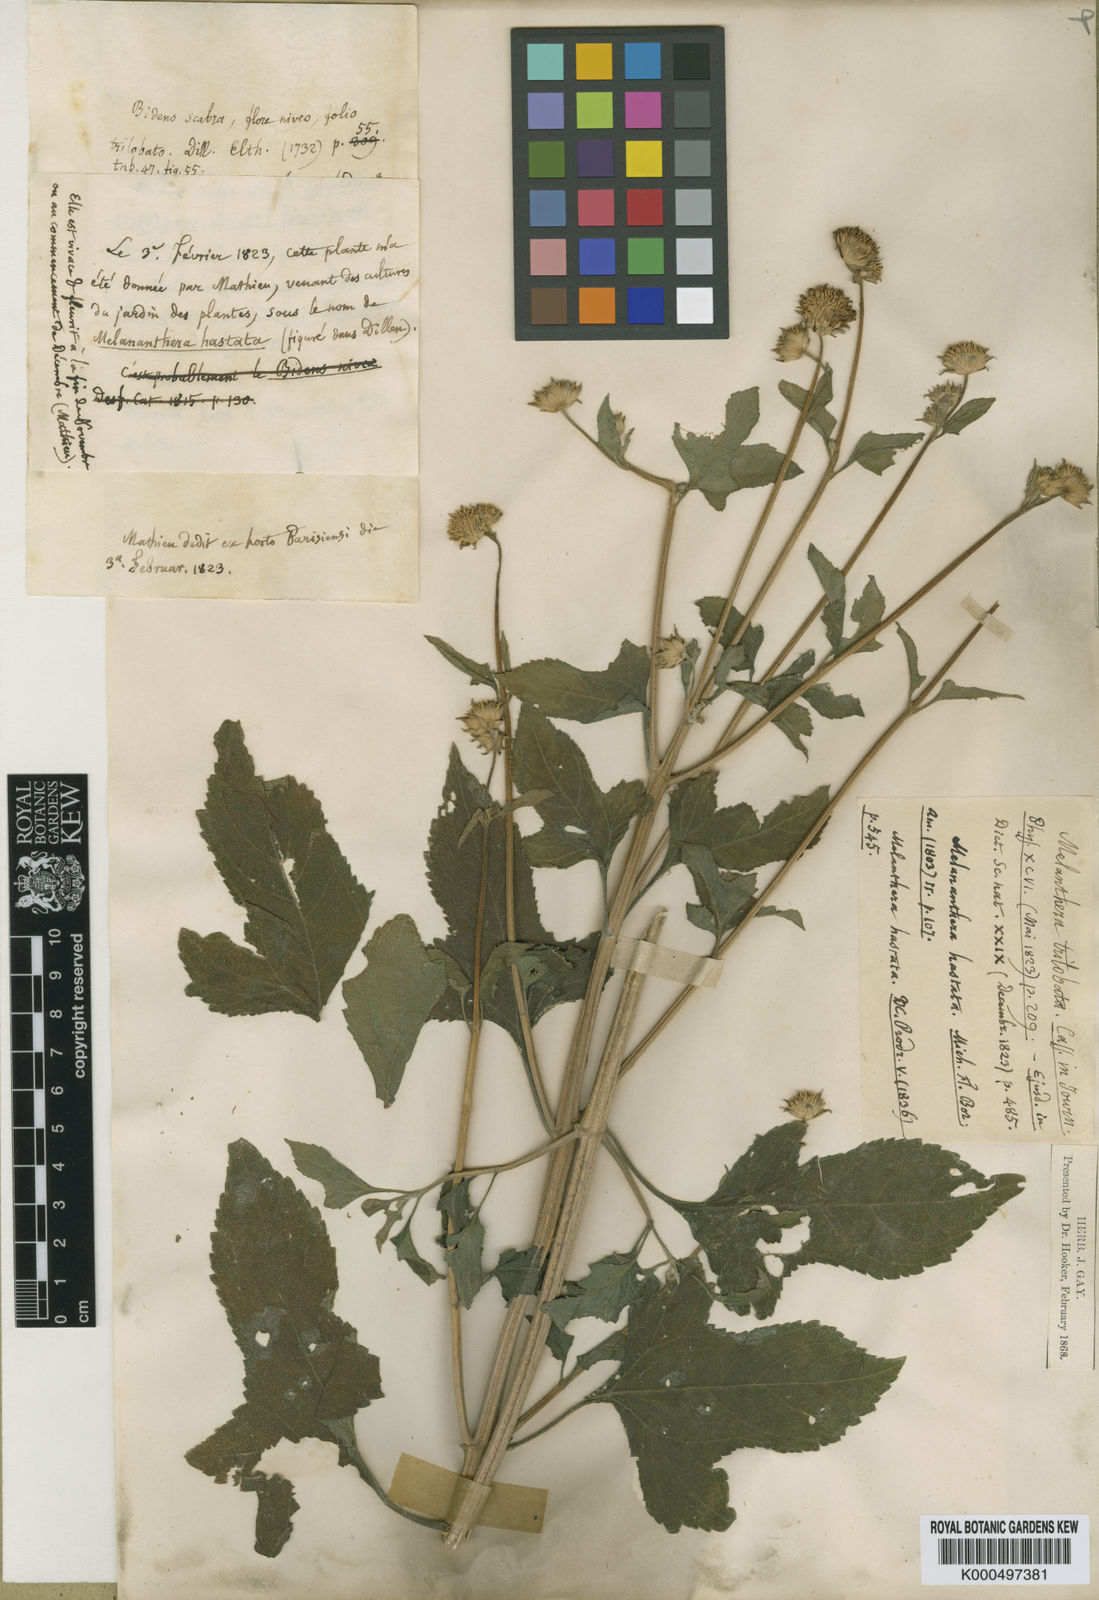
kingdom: Plantae
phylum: Tracheophyta
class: Magnoliopsida
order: Asterales
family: Asteraceae
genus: Melanthera
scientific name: Melanthera nivea
